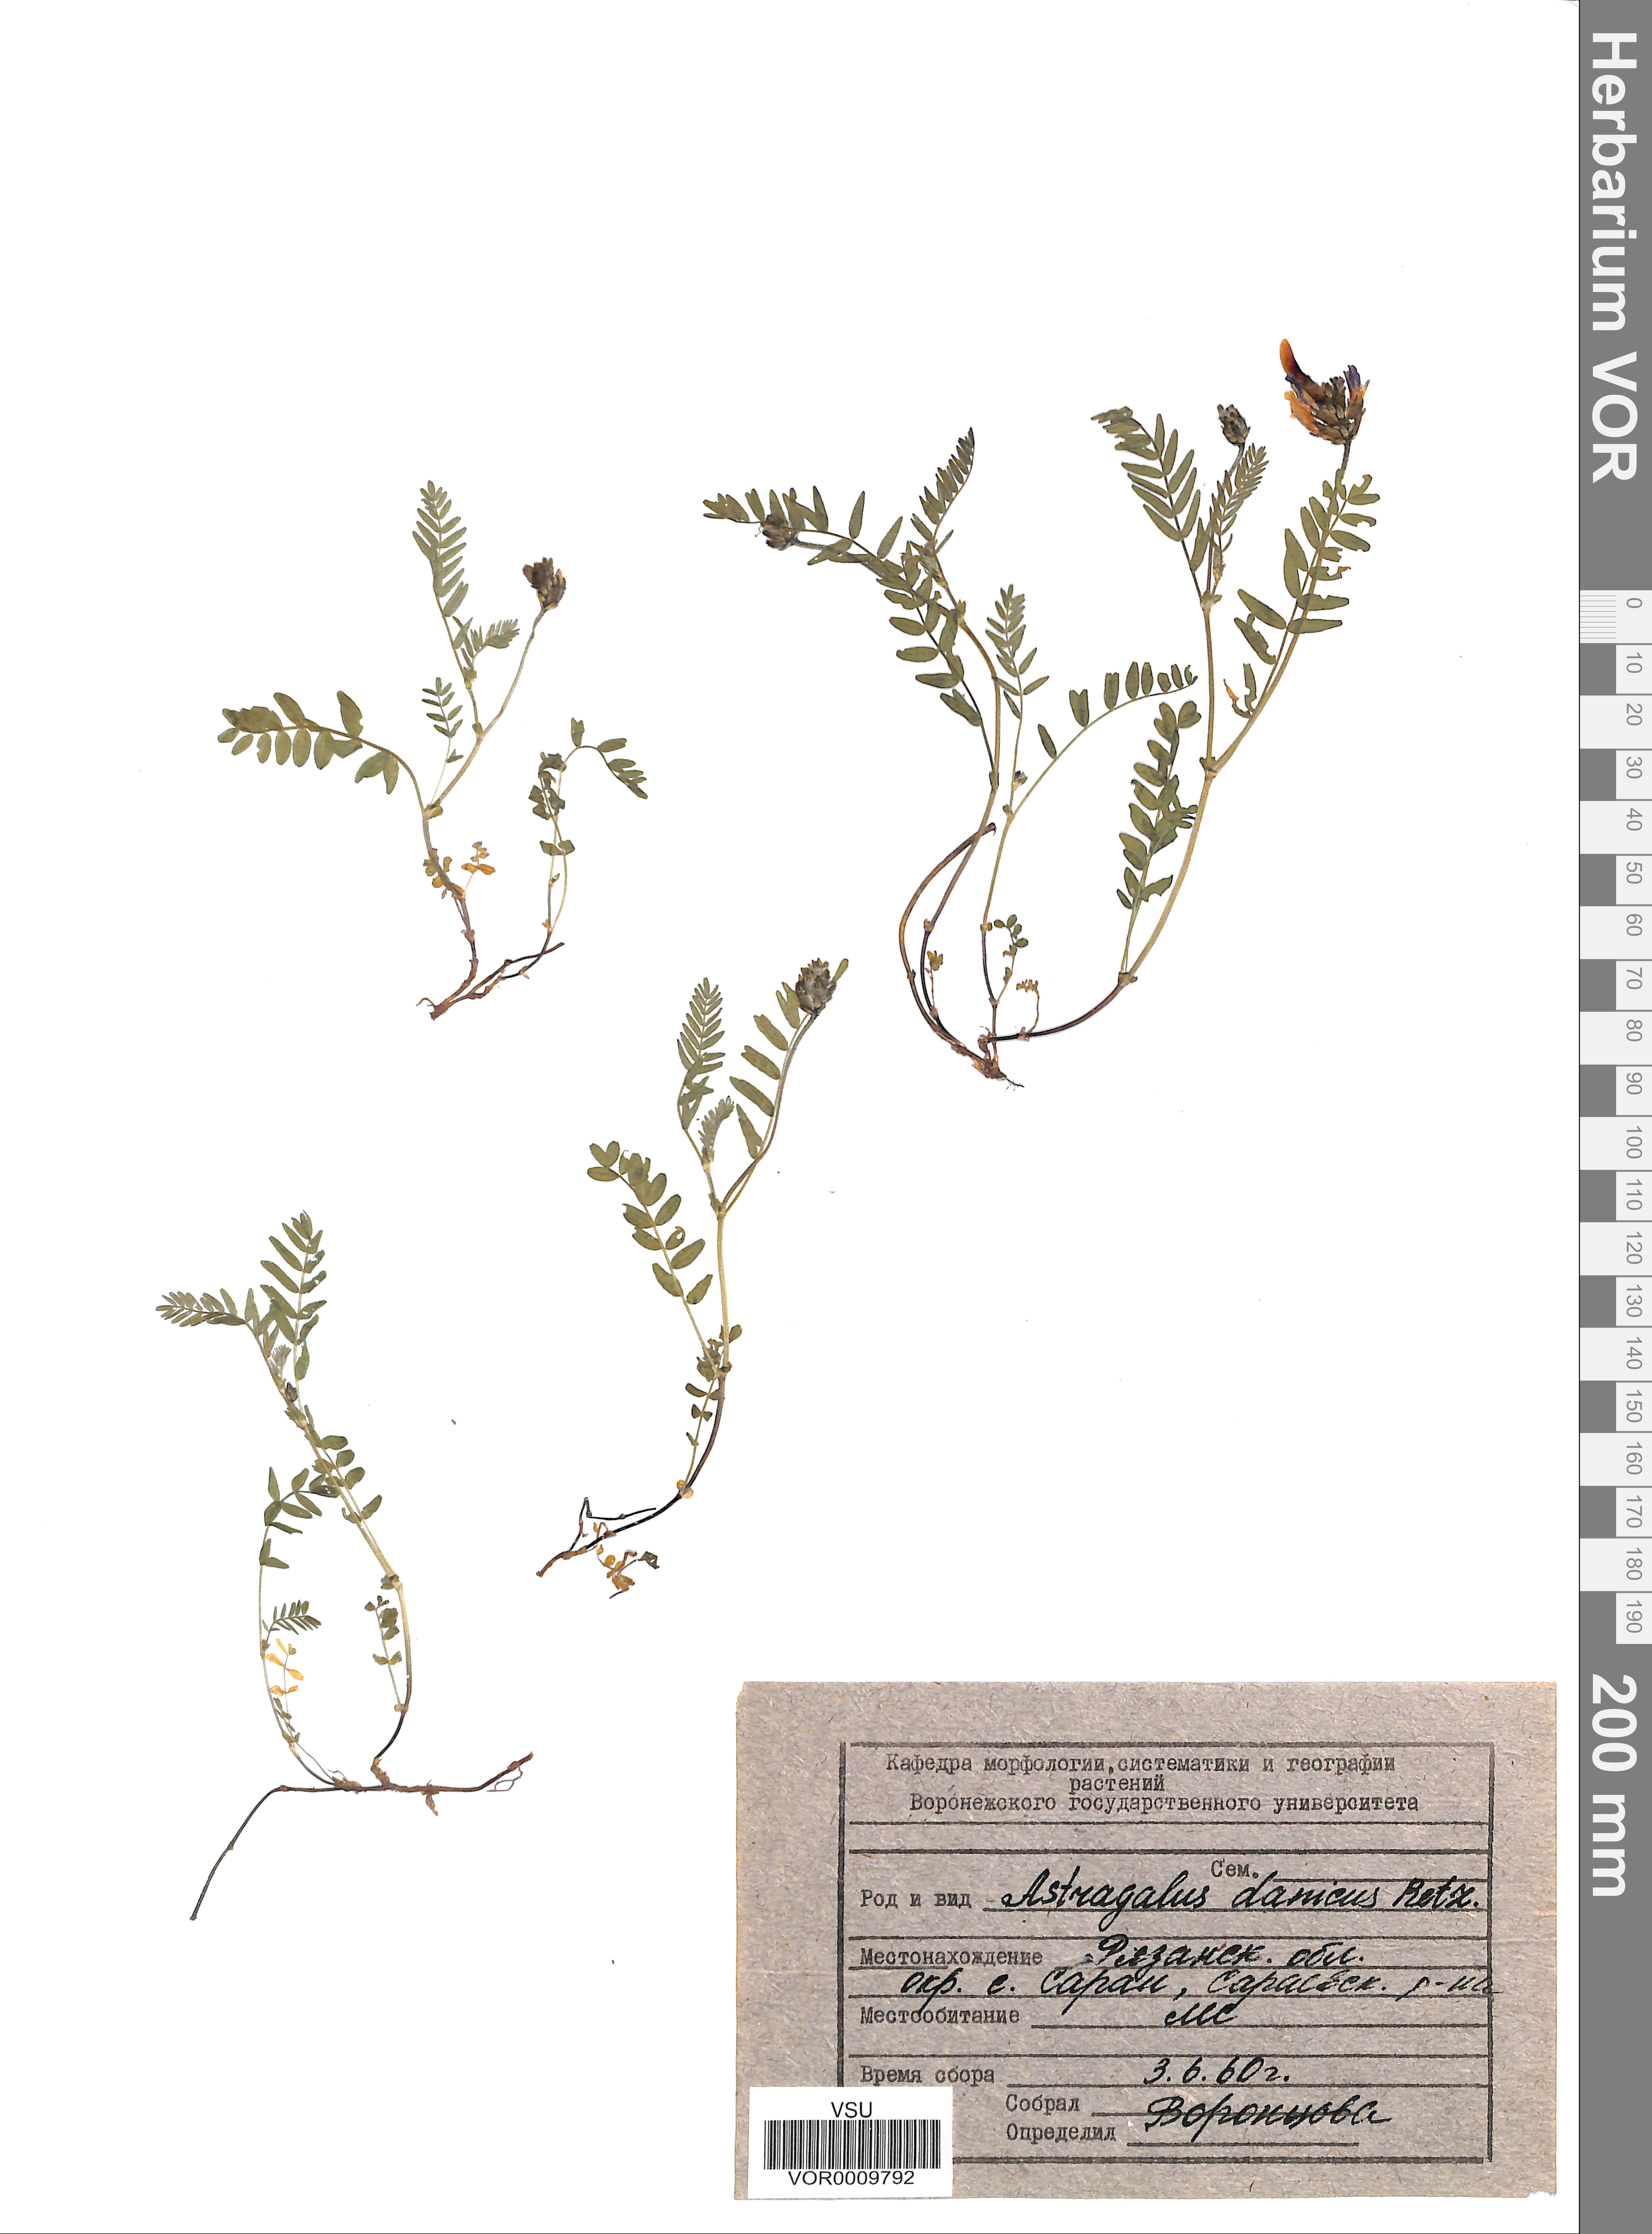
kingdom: Plantae
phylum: Tracheophyta
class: Magnoliopsida
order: Fabales
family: Fabaceae
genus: Astragalus
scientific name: Astragalus danicus
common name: Purple milk-vetch
